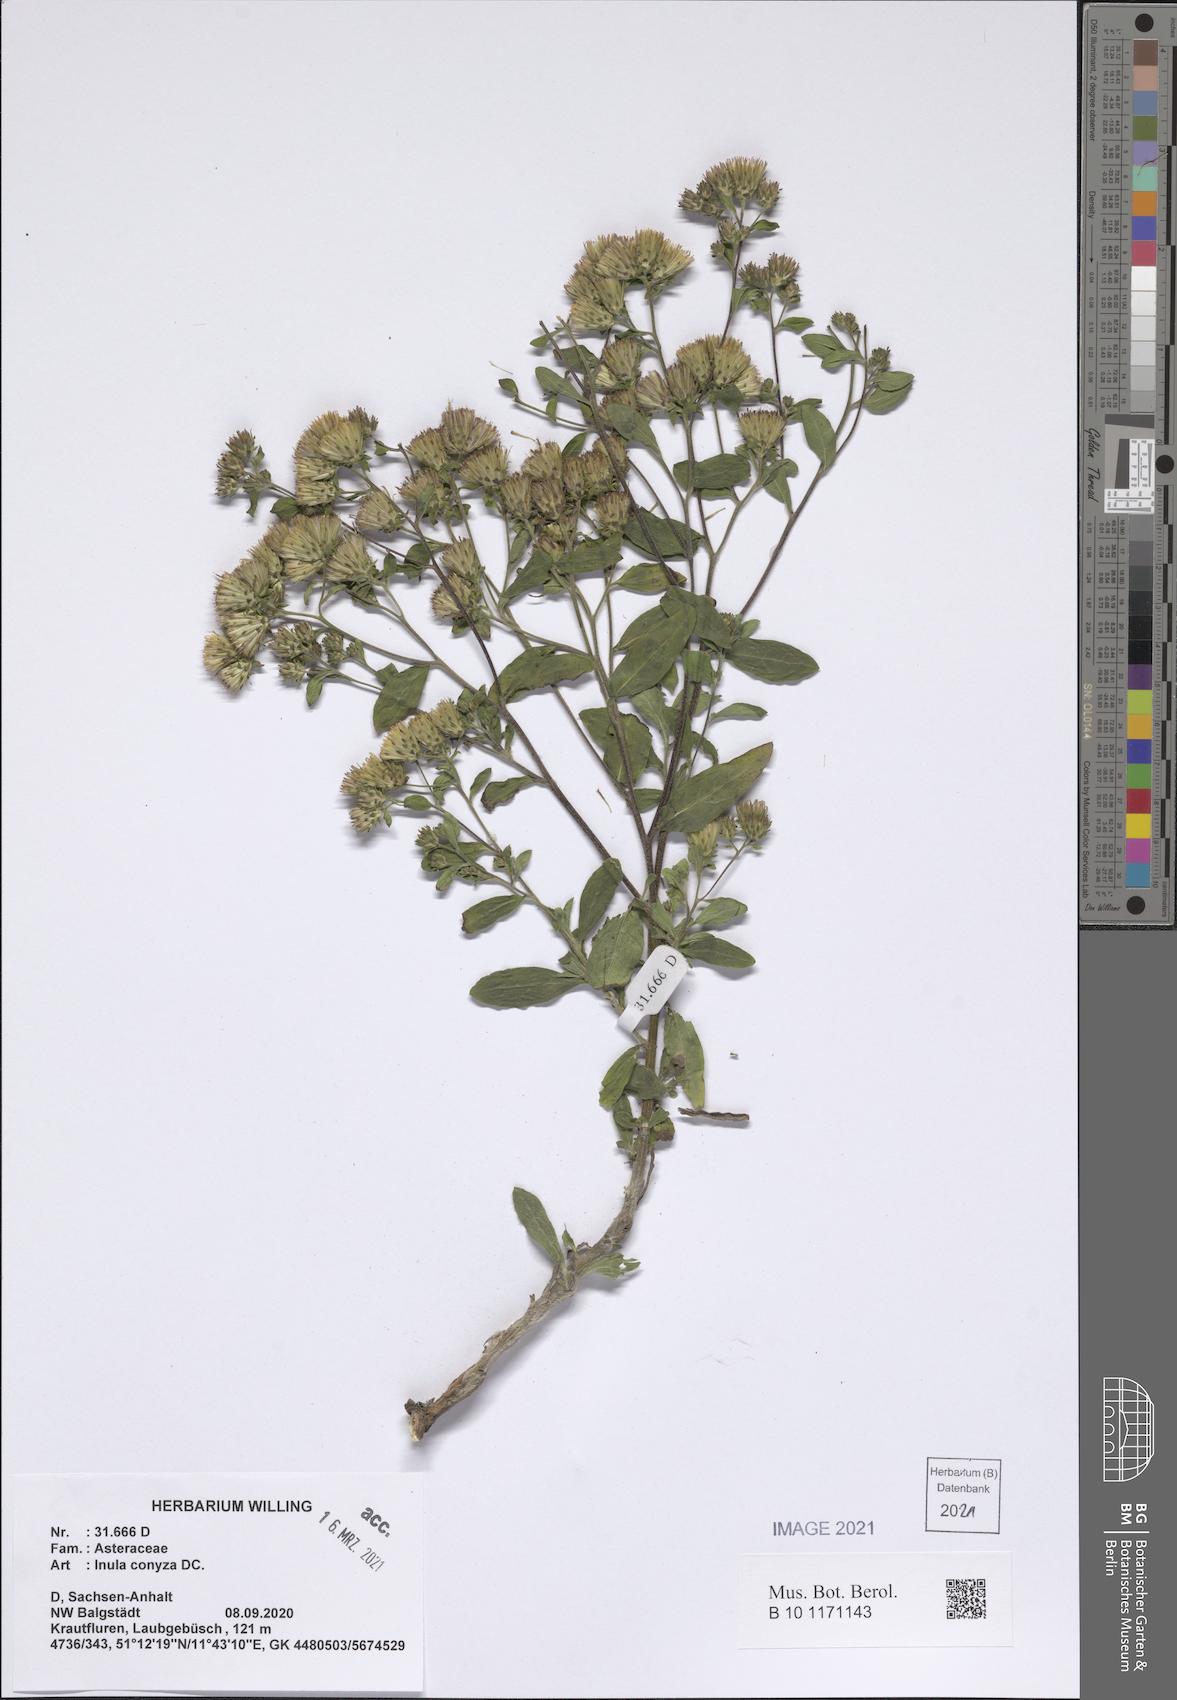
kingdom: Plantae
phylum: Tracheophyta
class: Magnoliopsida
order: Asterales
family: Asteraceae
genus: Pentanema
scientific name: Pentanema squarrosum
